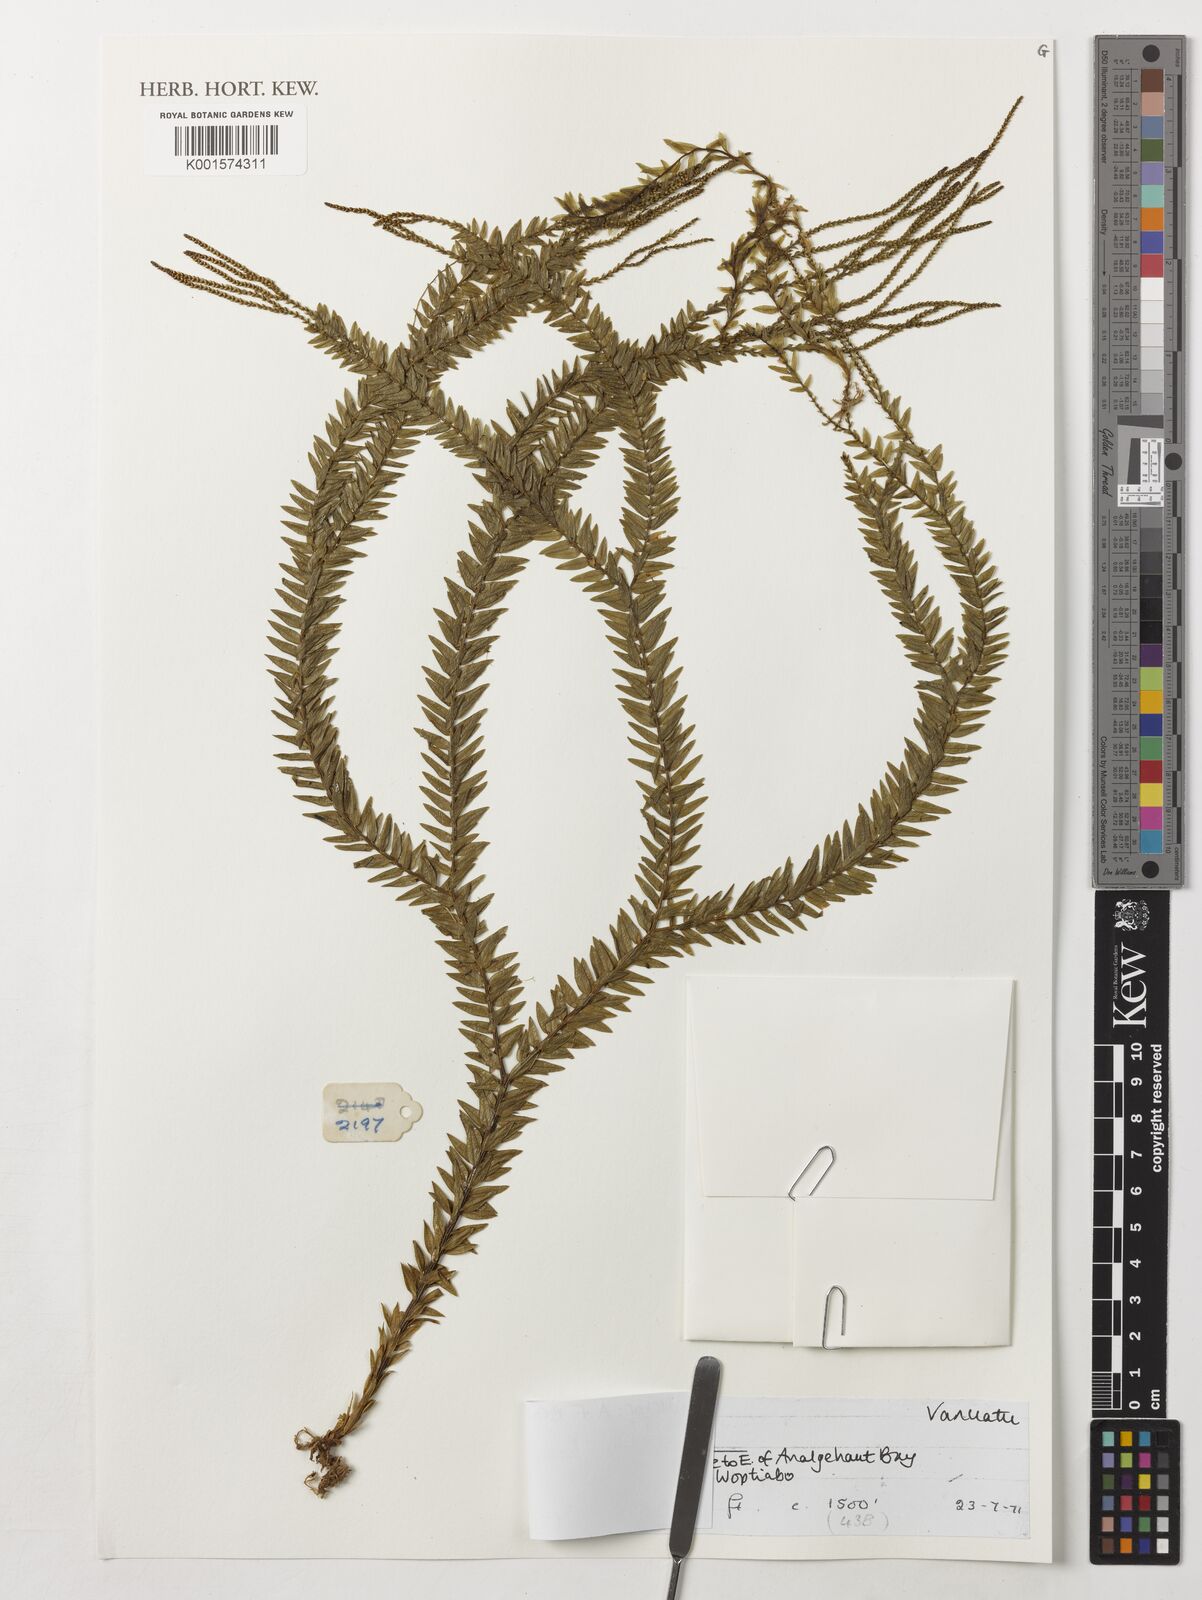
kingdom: Plantae
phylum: Tracheophyta
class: Lycopodiopsida
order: Lycopodiales
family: Lycopodiaceae
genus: Phlegmariurus
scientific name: Phlegmariurus phlegmaria
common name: Coarse tassel-fern
